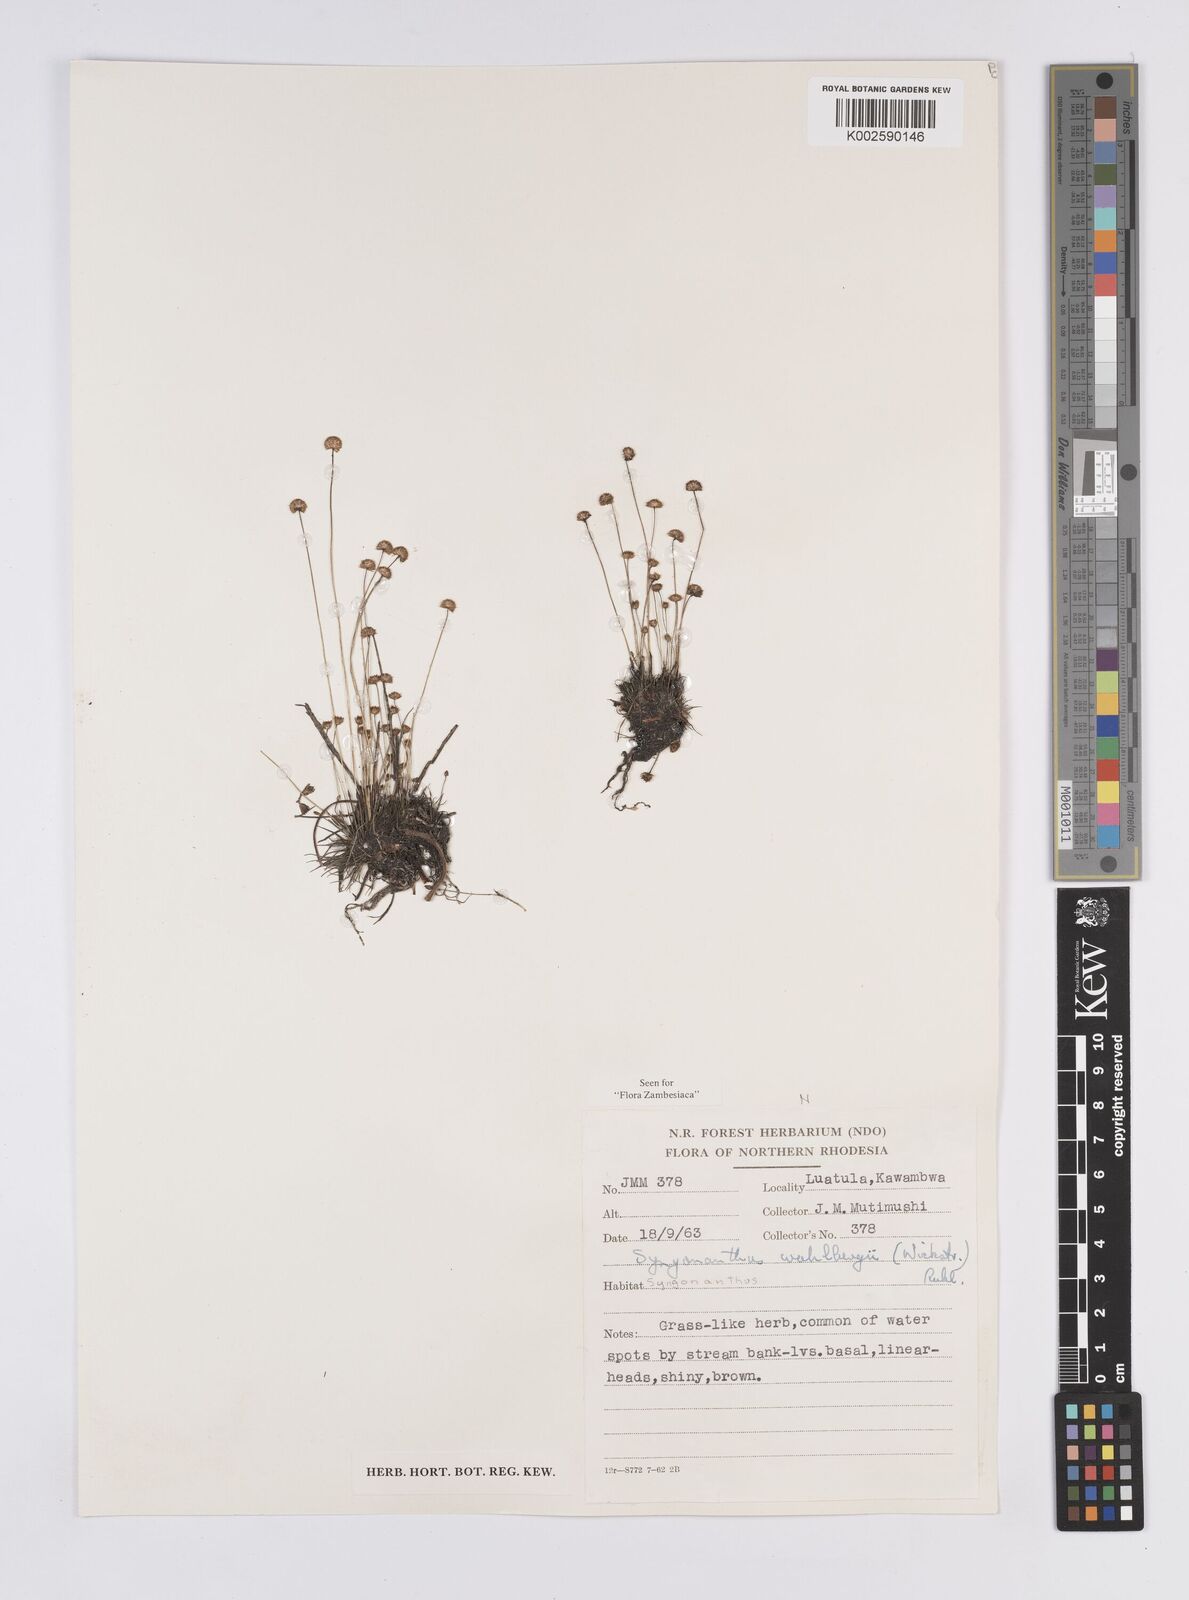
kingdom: Plantae
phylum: Tracheophyta
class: Liliopsida
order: Poales
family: Eriocaulaceae
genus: Syngonanthus
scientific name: Syngonanthus wahlbergii
